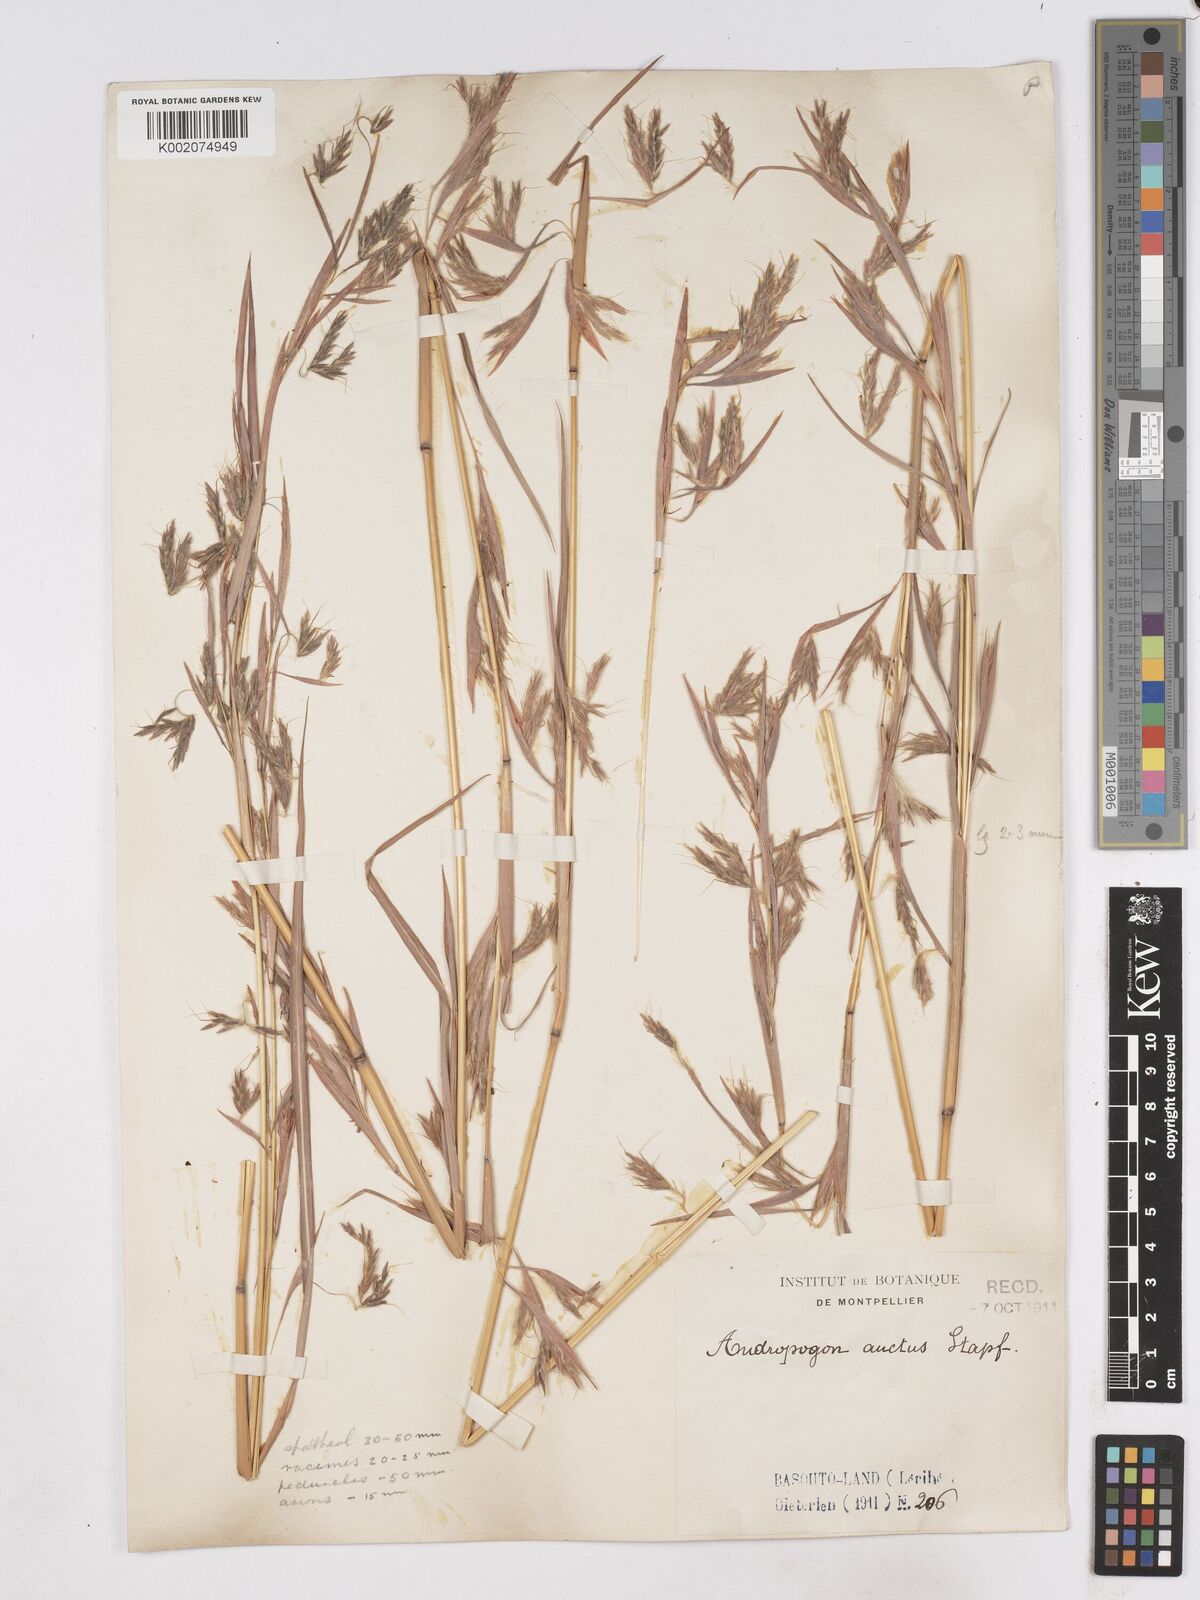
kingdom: Plantae
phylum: Tracheophyta
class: Liliopsida
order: Poales
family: Poaceae
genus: Hyparrhenia
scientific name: Hyparrhenia dregeana
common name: Silky thatching grass
